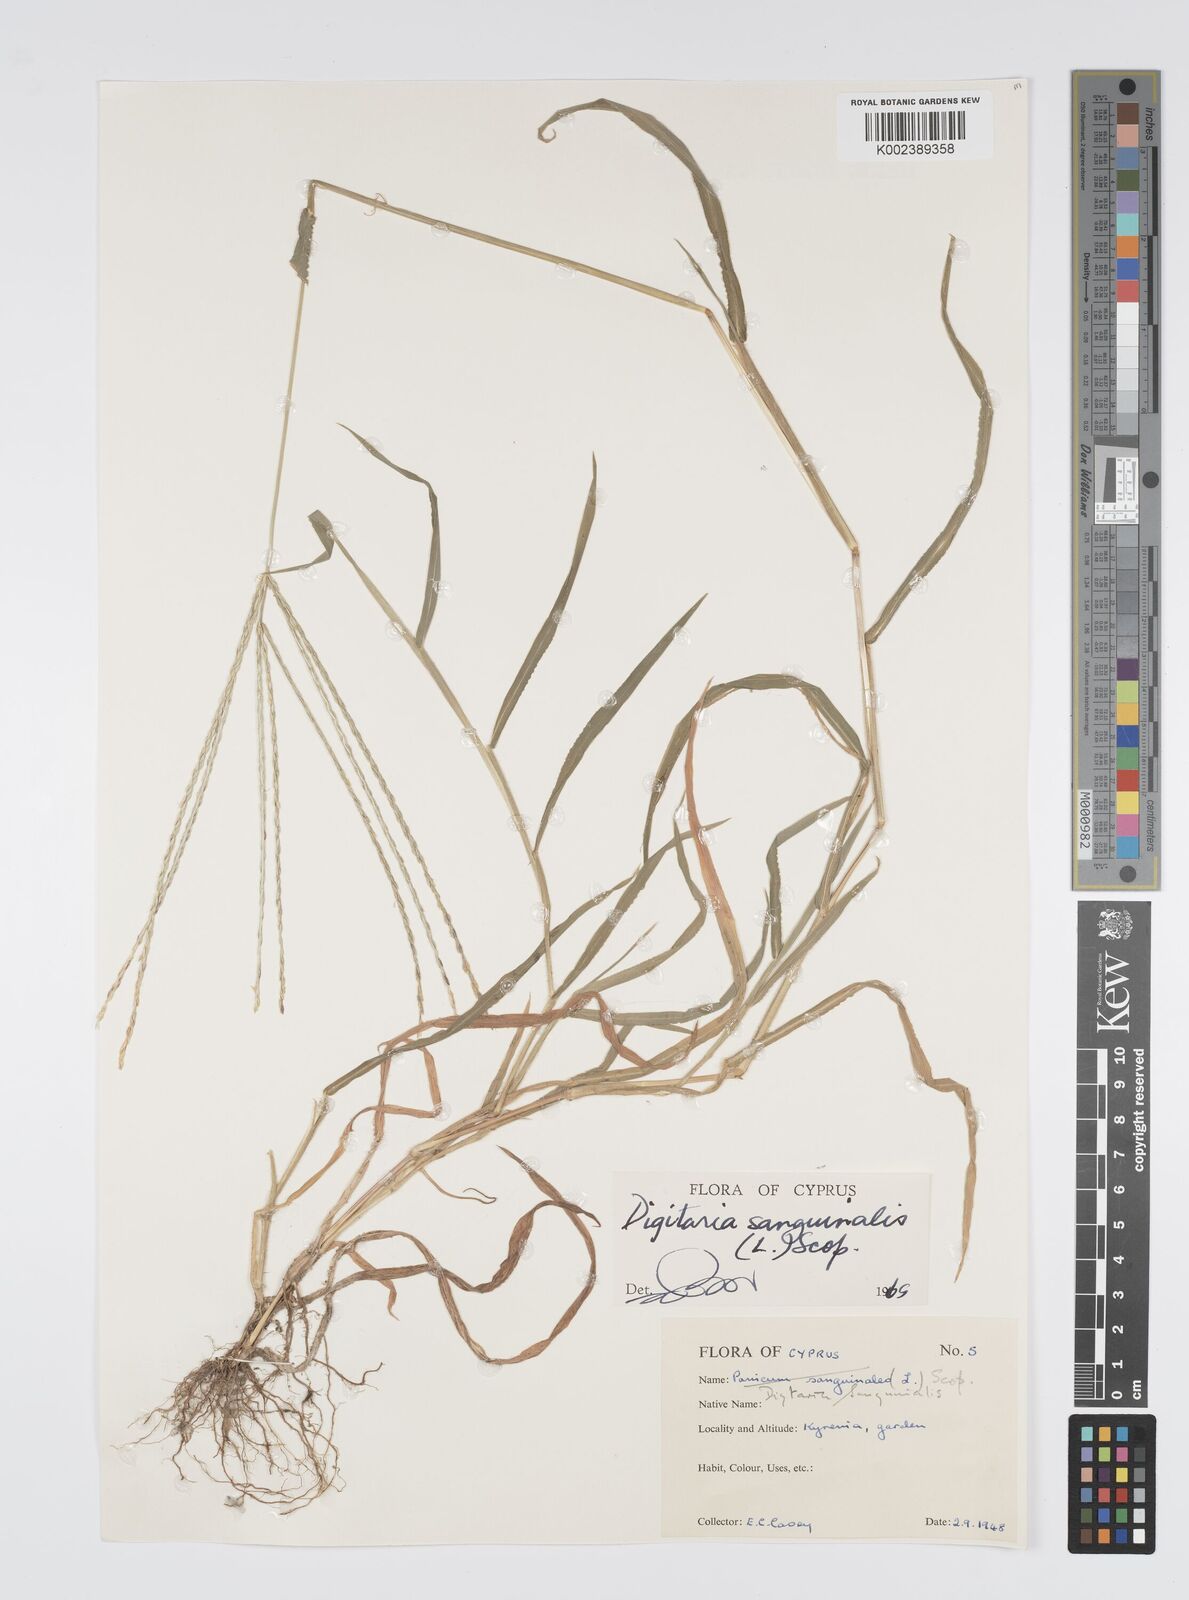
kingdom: Plantae
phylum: Tracheophyta
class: Liliopsida
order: Poales
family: Poaceae
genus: Digitaria
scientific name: Digitaria sanguinalis
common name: Hairy crabgrass
